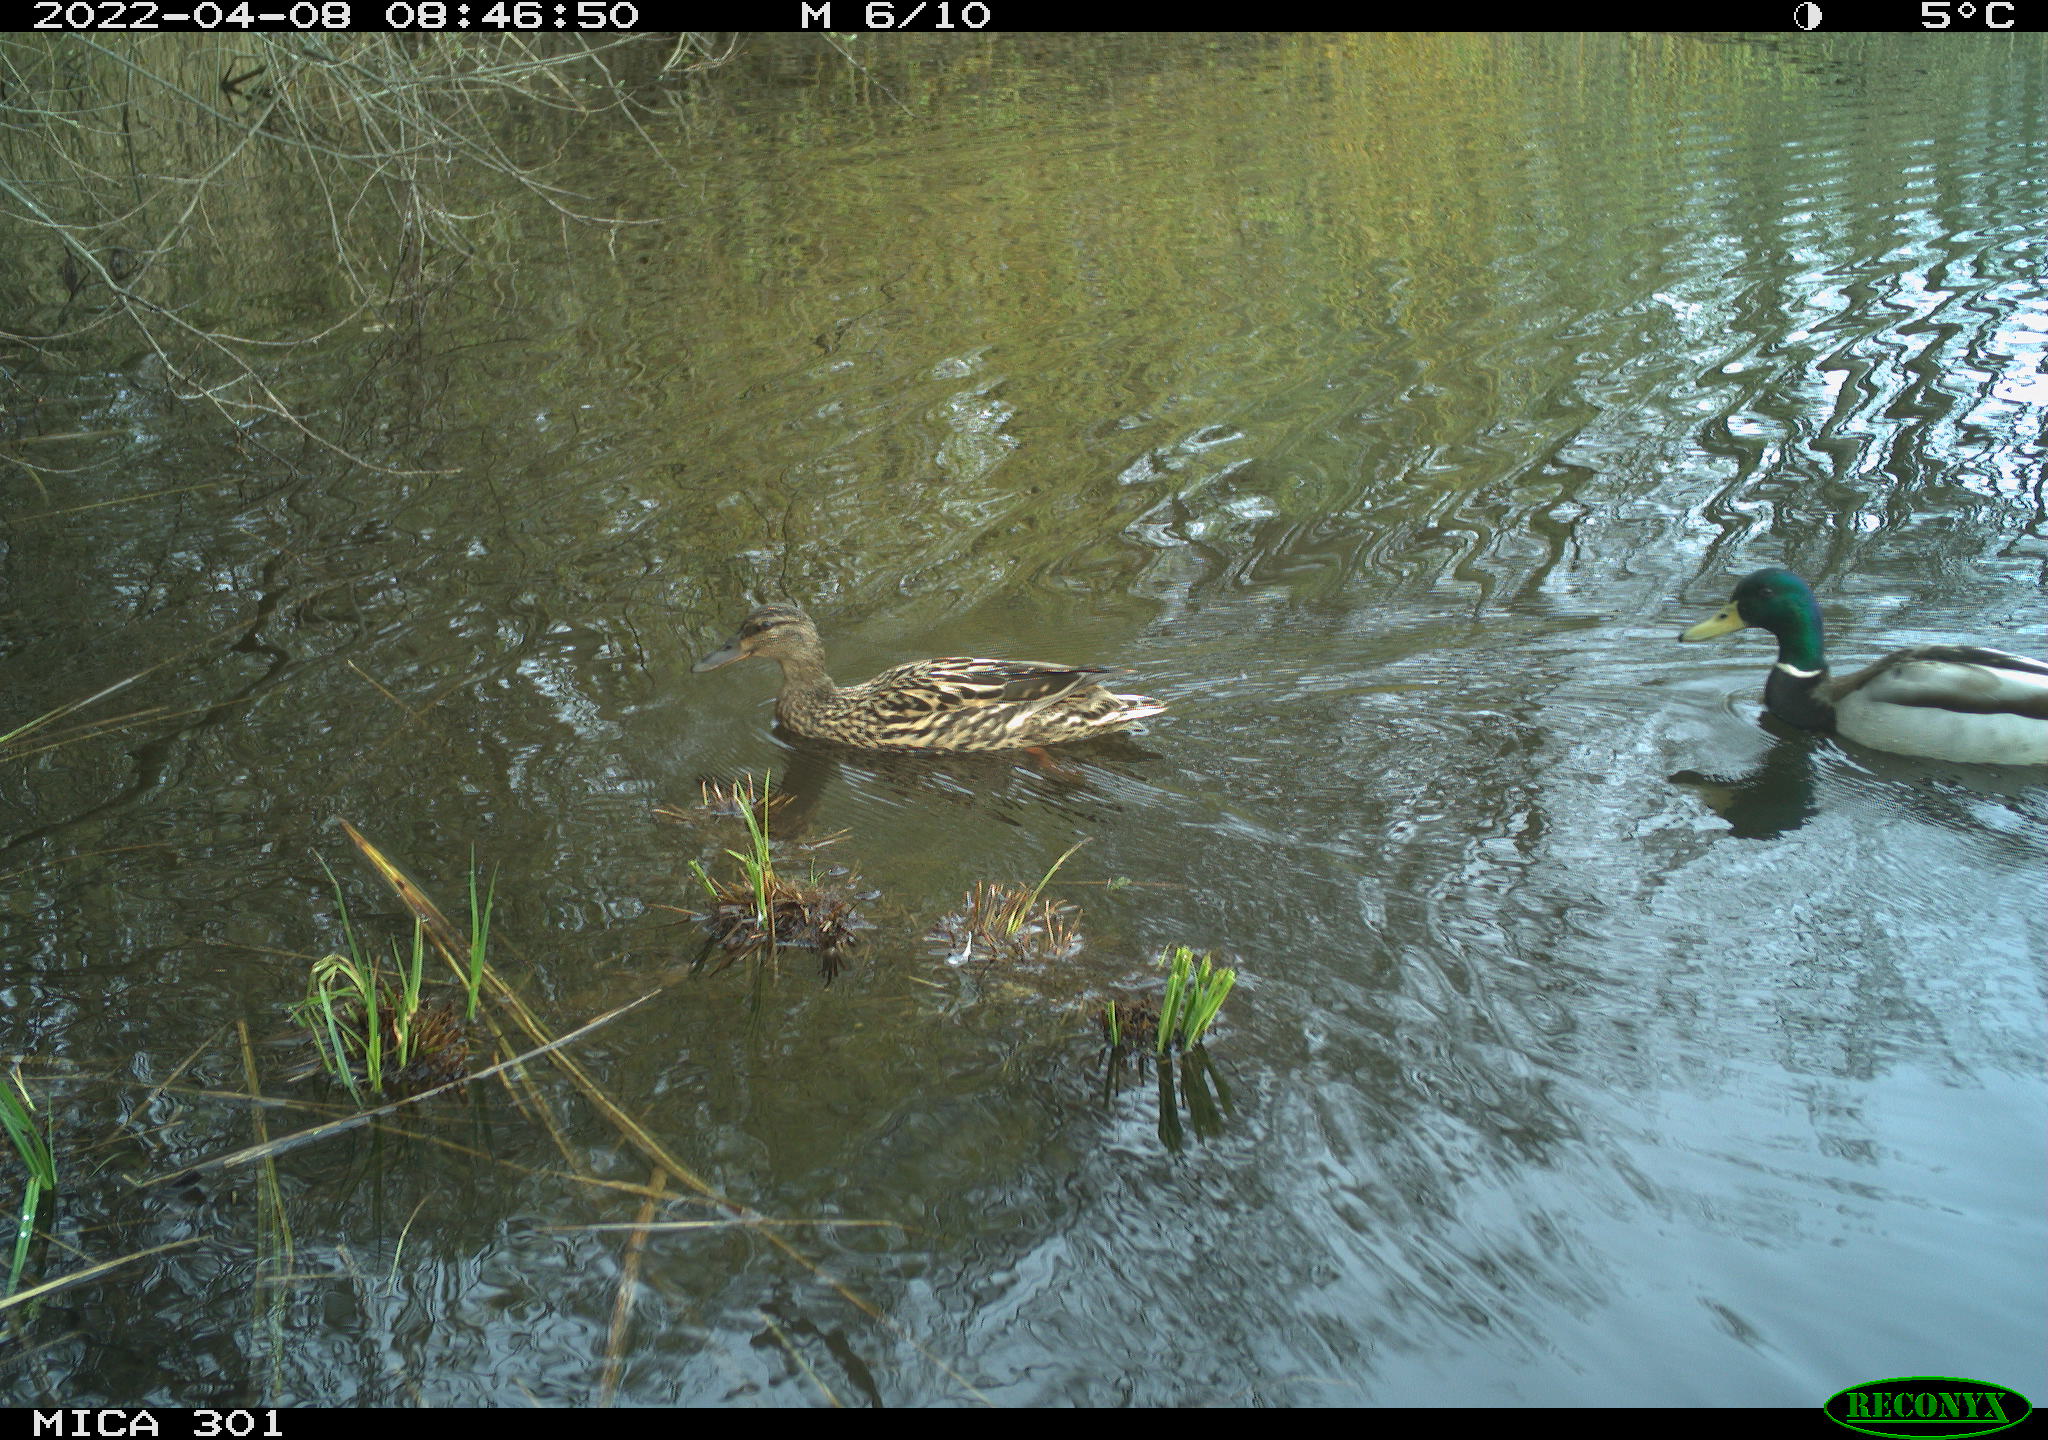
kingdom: Animalia
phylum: Chordata
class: Aves
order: Anseriformes
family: Anatidae
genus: Anas
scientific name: Anas platyrhynchos
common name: Mallard
